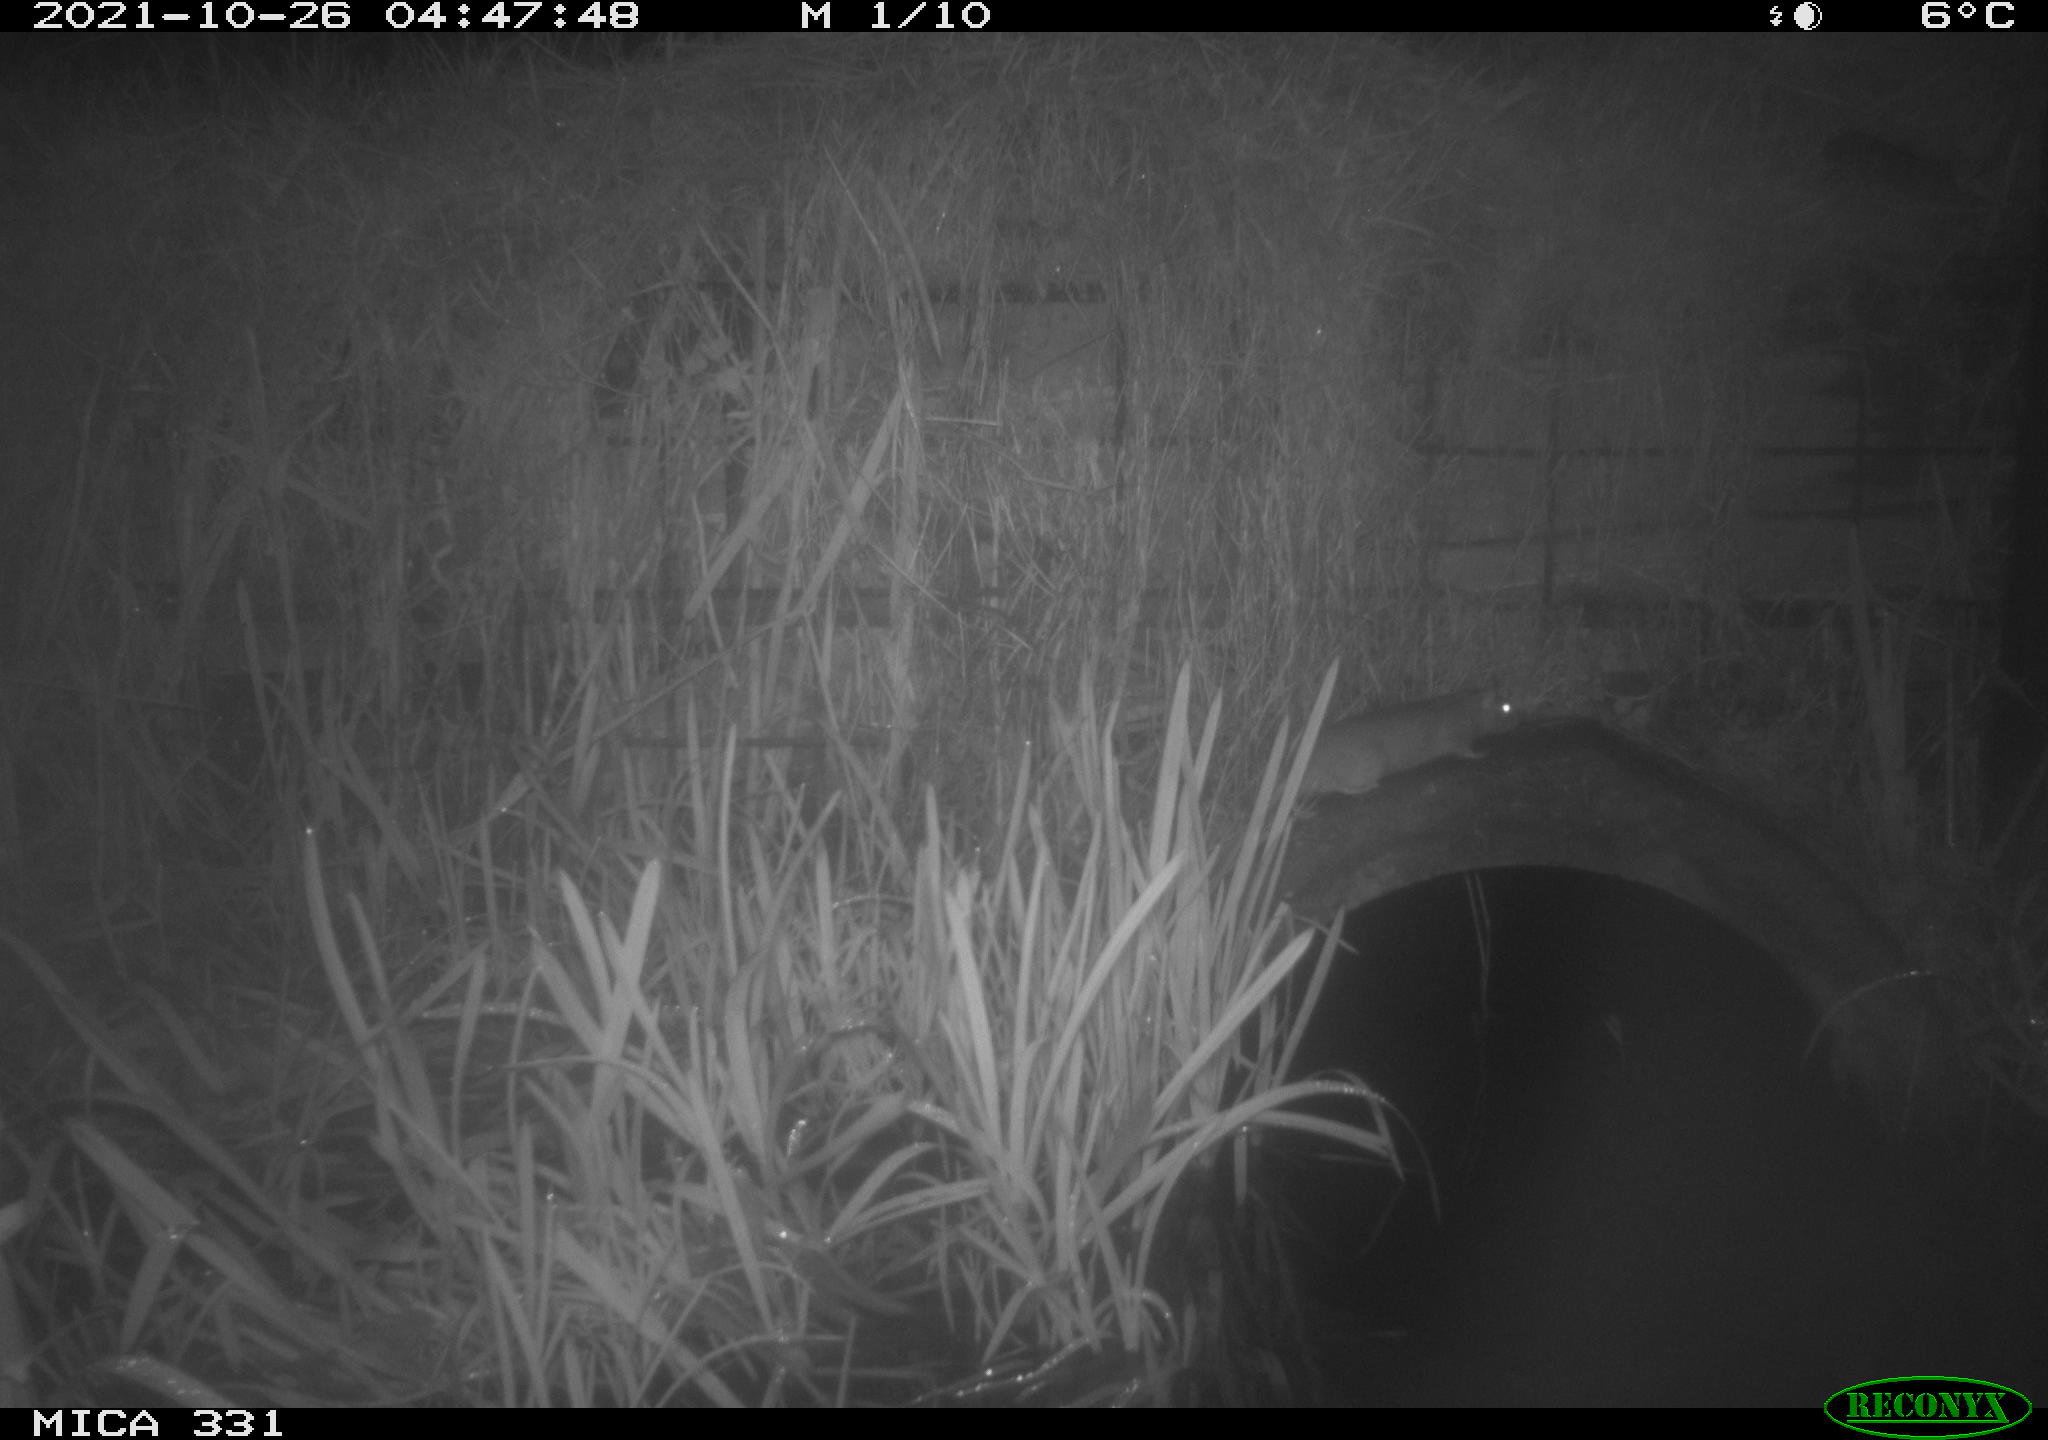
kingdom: Animalia
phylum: Chordata
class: Mammalia
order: Rodentia
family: Muridae
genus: Rattus
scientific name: Rattus norvegicus
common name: Brown rat
